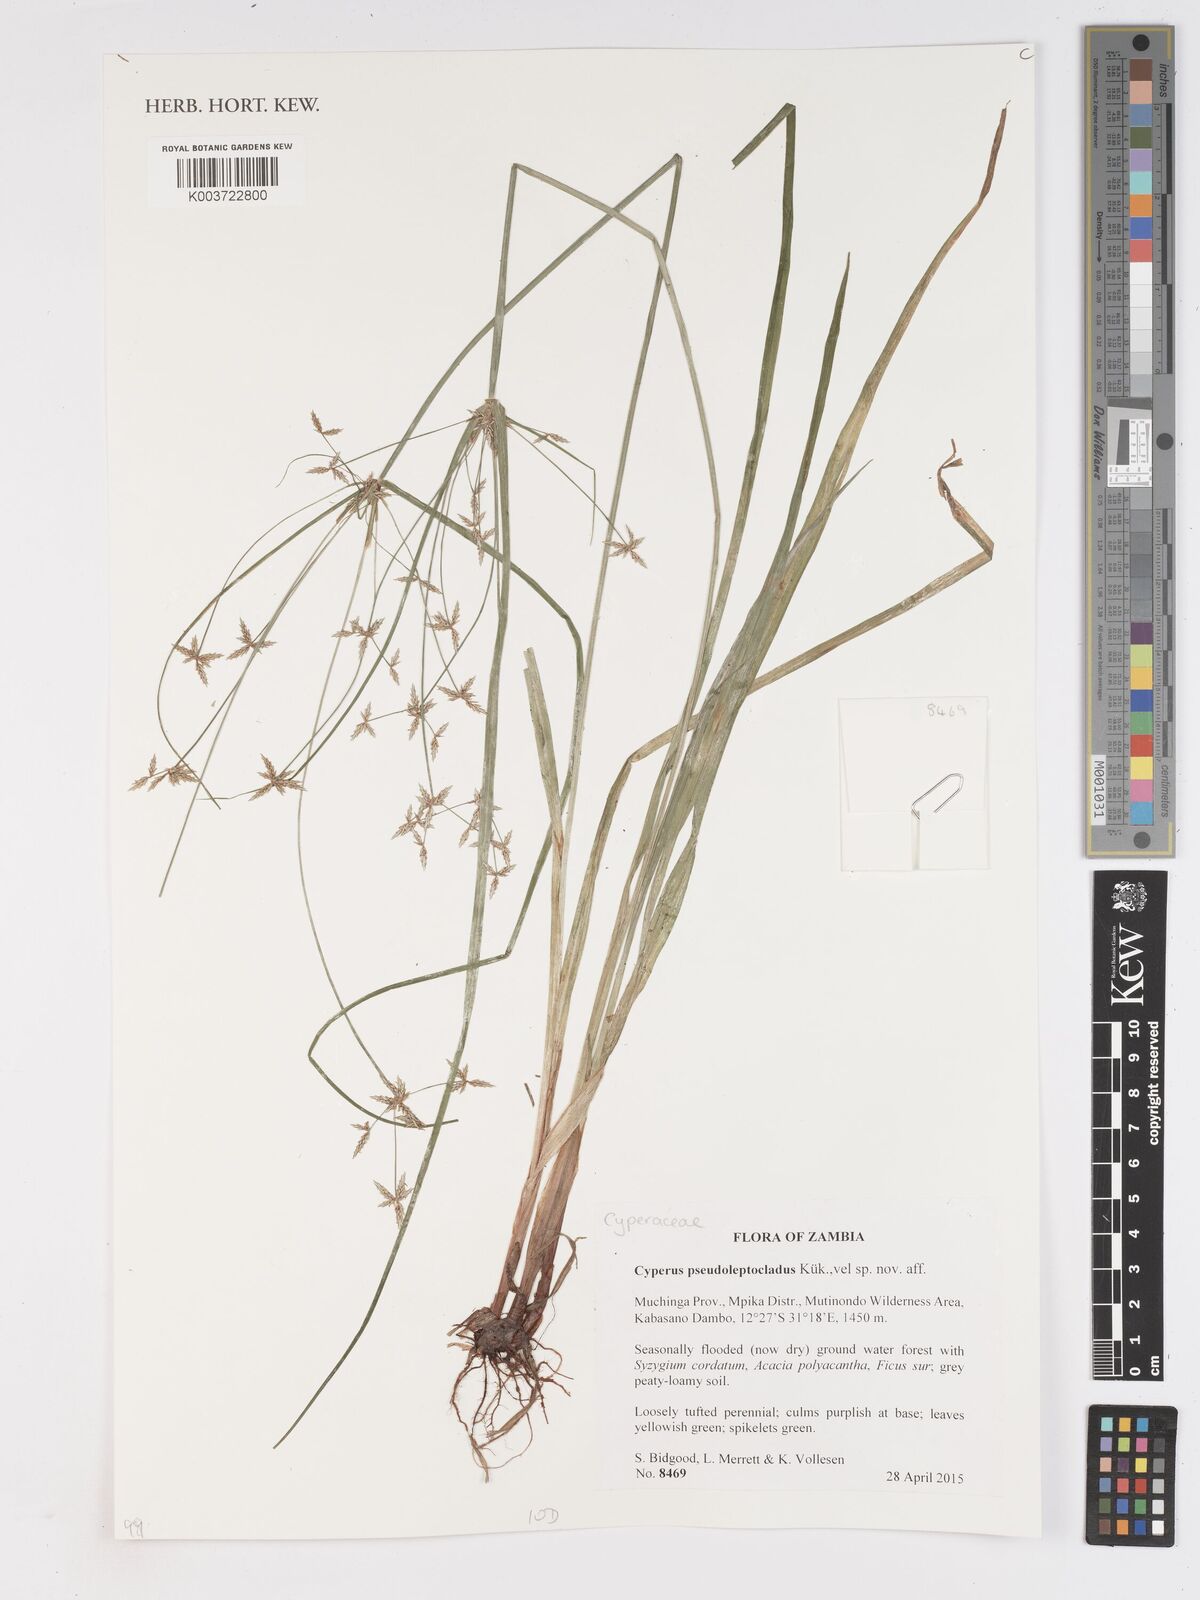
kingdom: Plantae
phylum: Tracheophyta
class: Liliopsida
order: Poales
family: Cyperaceae
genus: Cyperus
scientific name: Cyperus glaucophyllus
